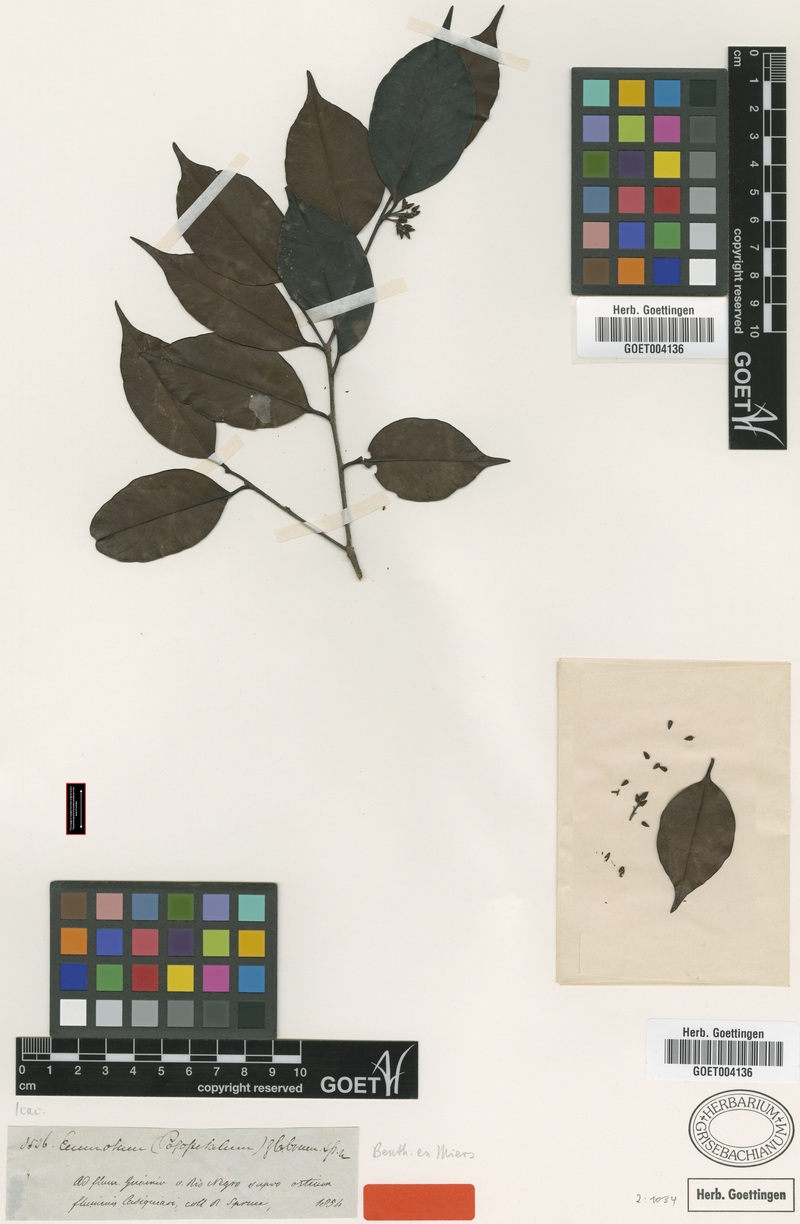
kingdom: Plantae
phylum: Tracheophyta
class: Magnoliopsida
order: Metteniusales
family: Metteniusaceae
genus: Emmotum
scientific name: Emmotum glabrum
